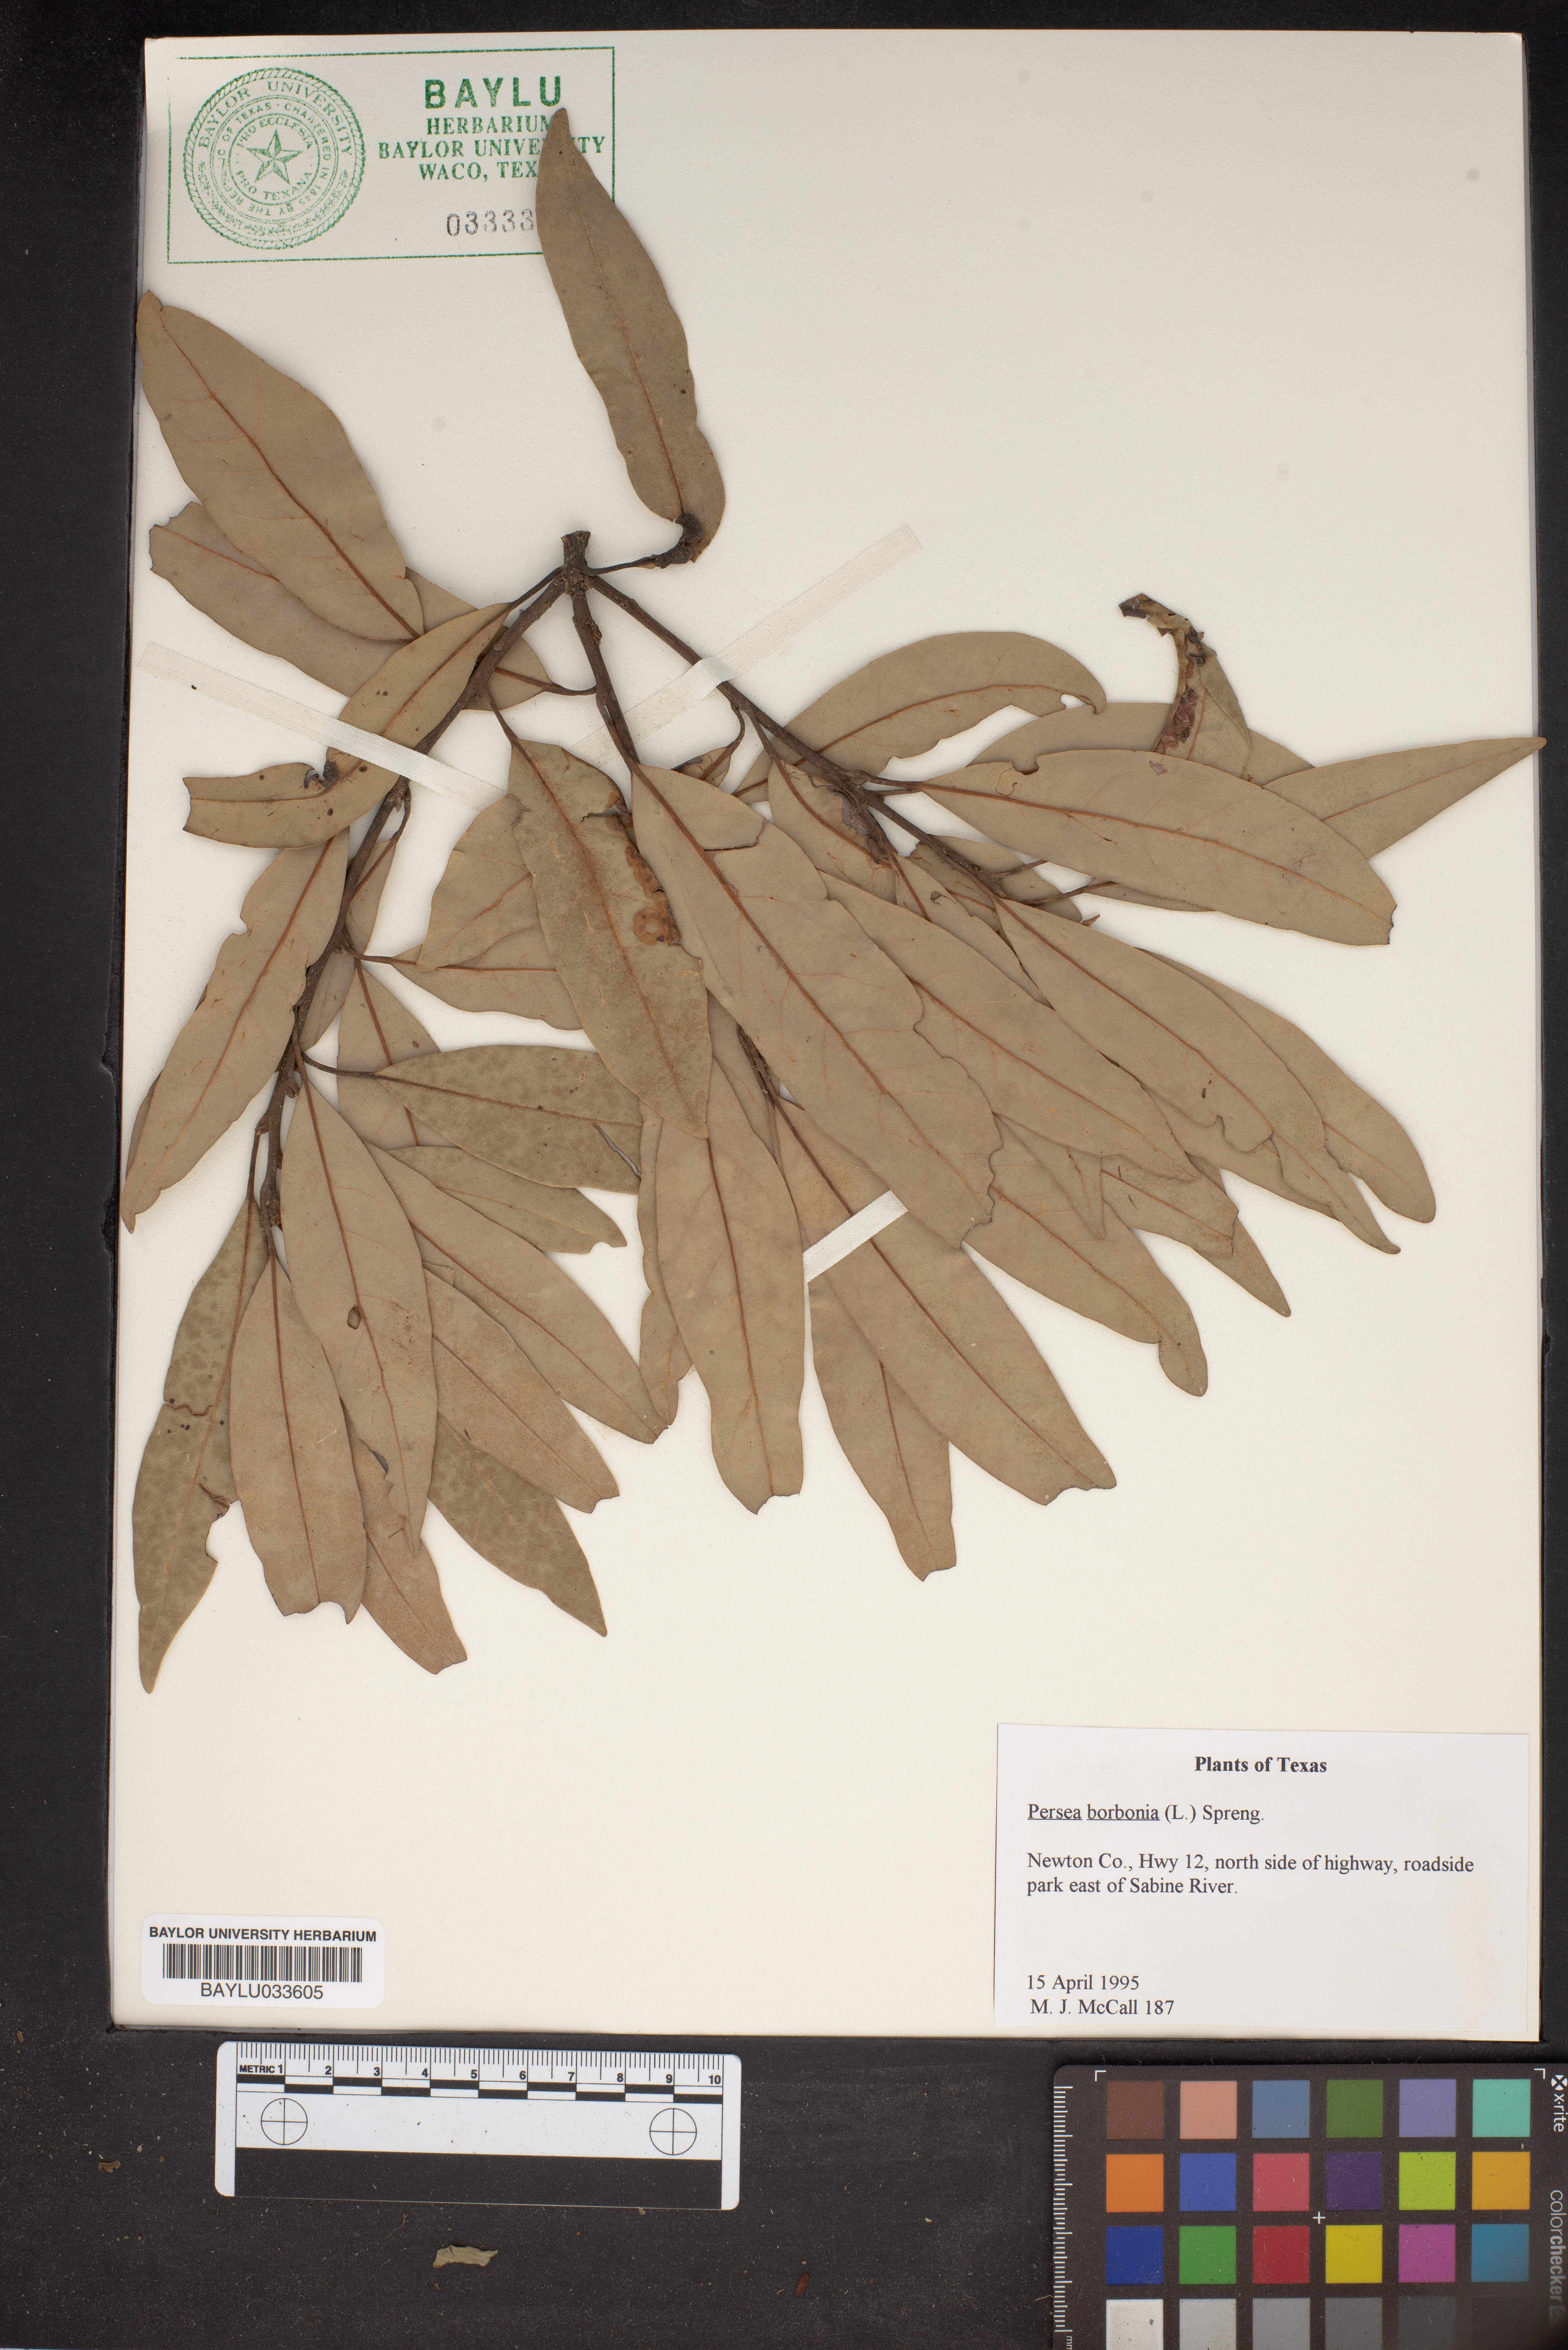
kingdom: Plantae
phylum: Tracheophyta
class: Magnoliopsida
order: Laurales
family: Lauraceae
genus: Persea
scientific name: Persea borbonia
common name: Redbay
